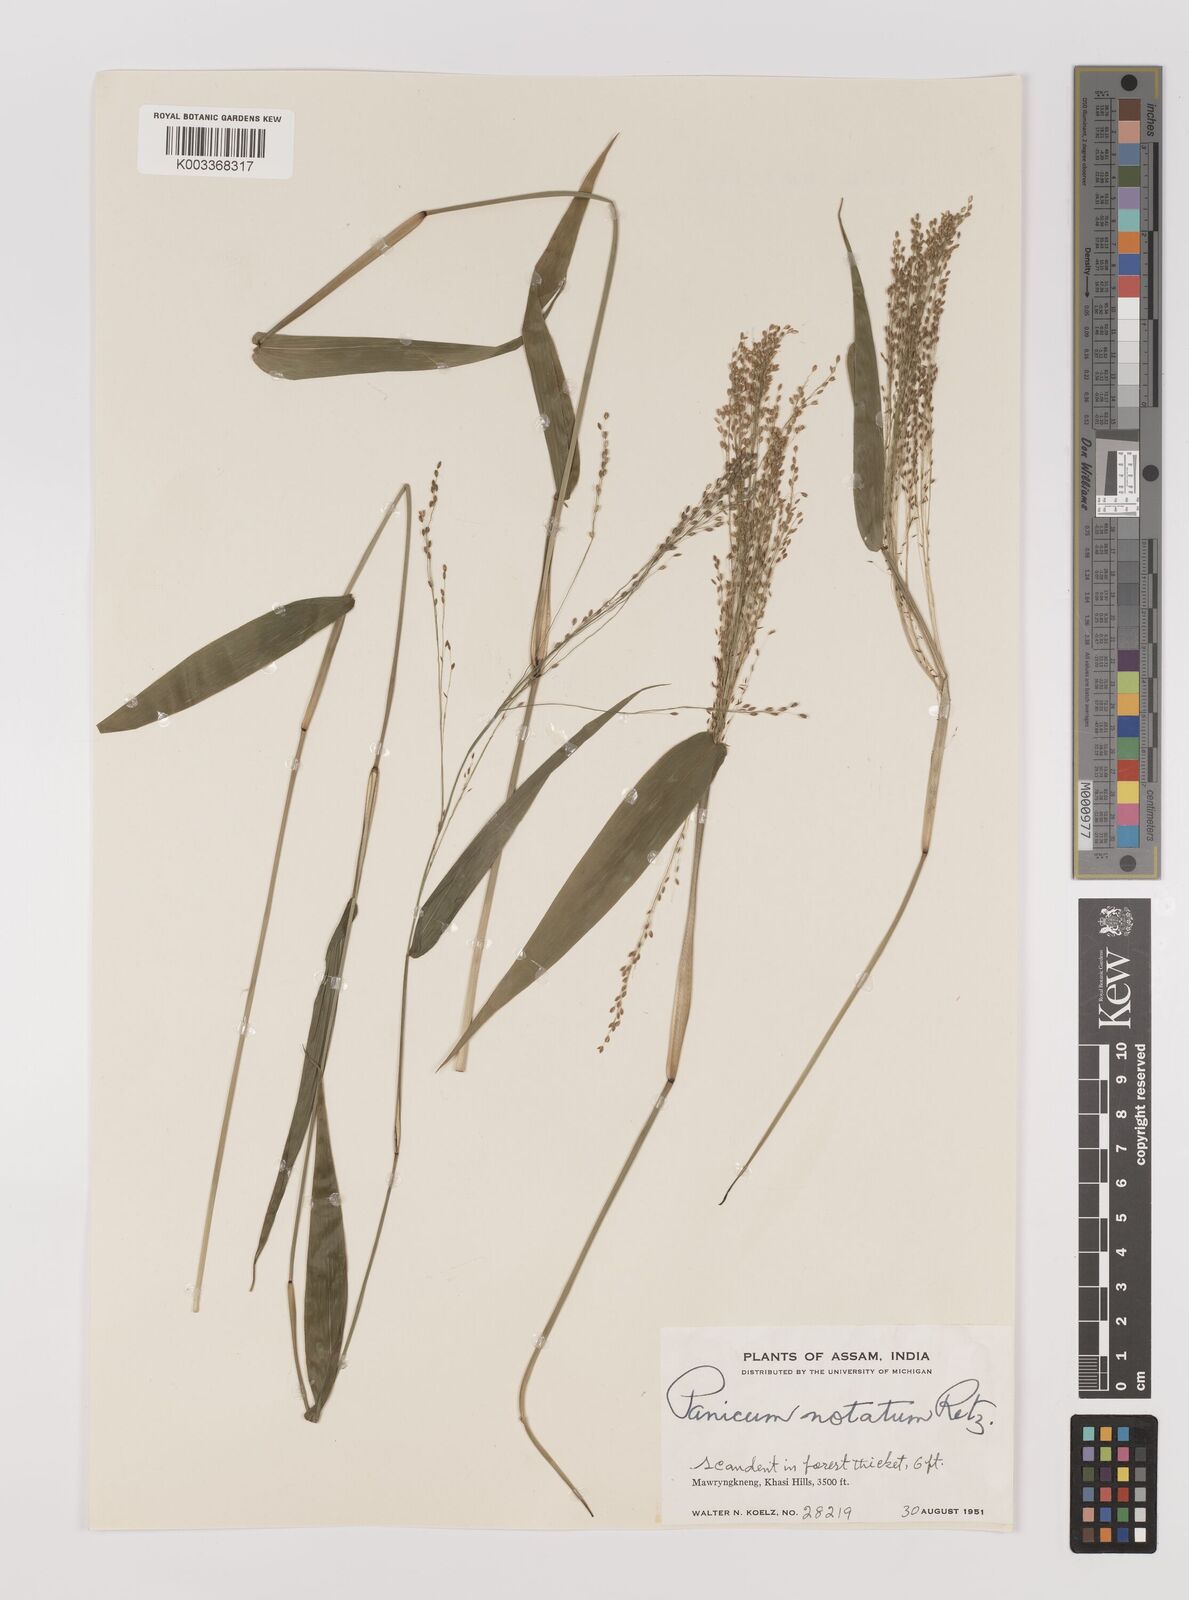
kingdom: Plantae
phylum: Tracheophyta
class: Liliopsida
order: Poales
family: Poaceae
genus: Panicum
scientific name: Panicum notatum
